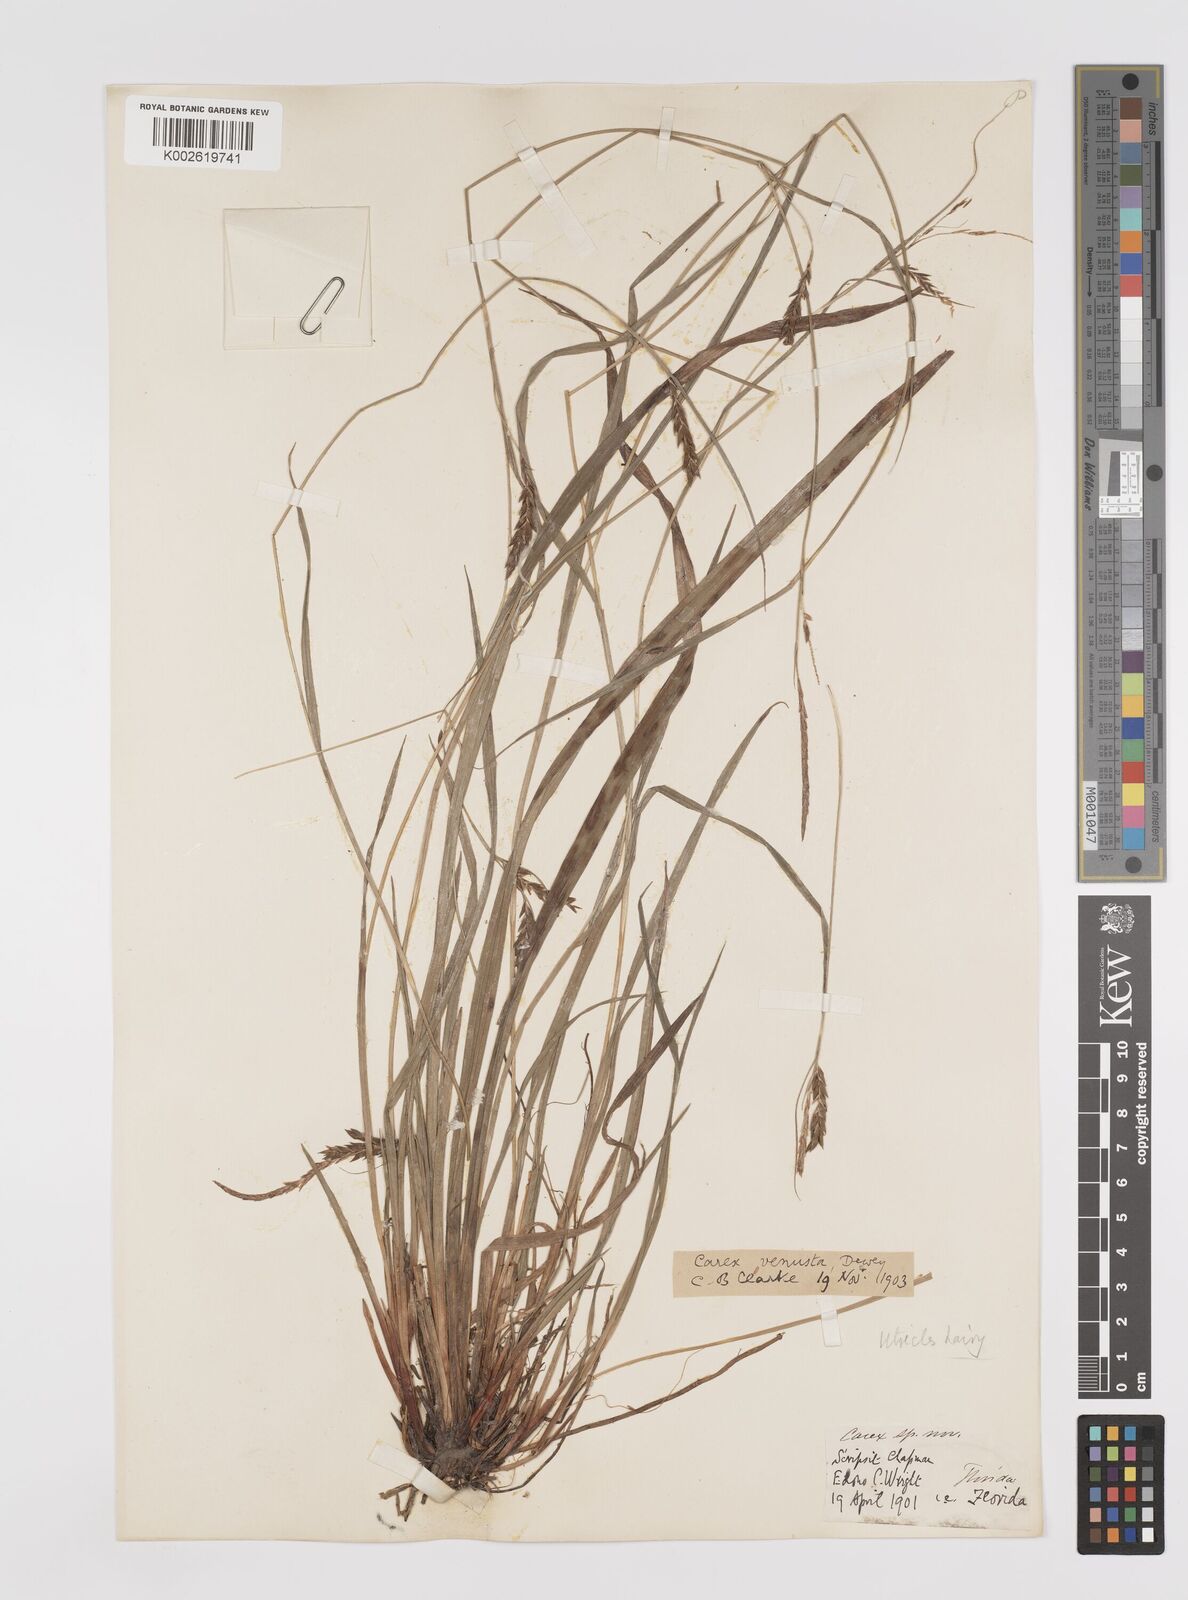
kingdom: Plantae
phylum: Tracheophyta
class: Liliopsida
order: Poales
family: Cyperaceae
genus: Carex
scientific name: Carex venusta
